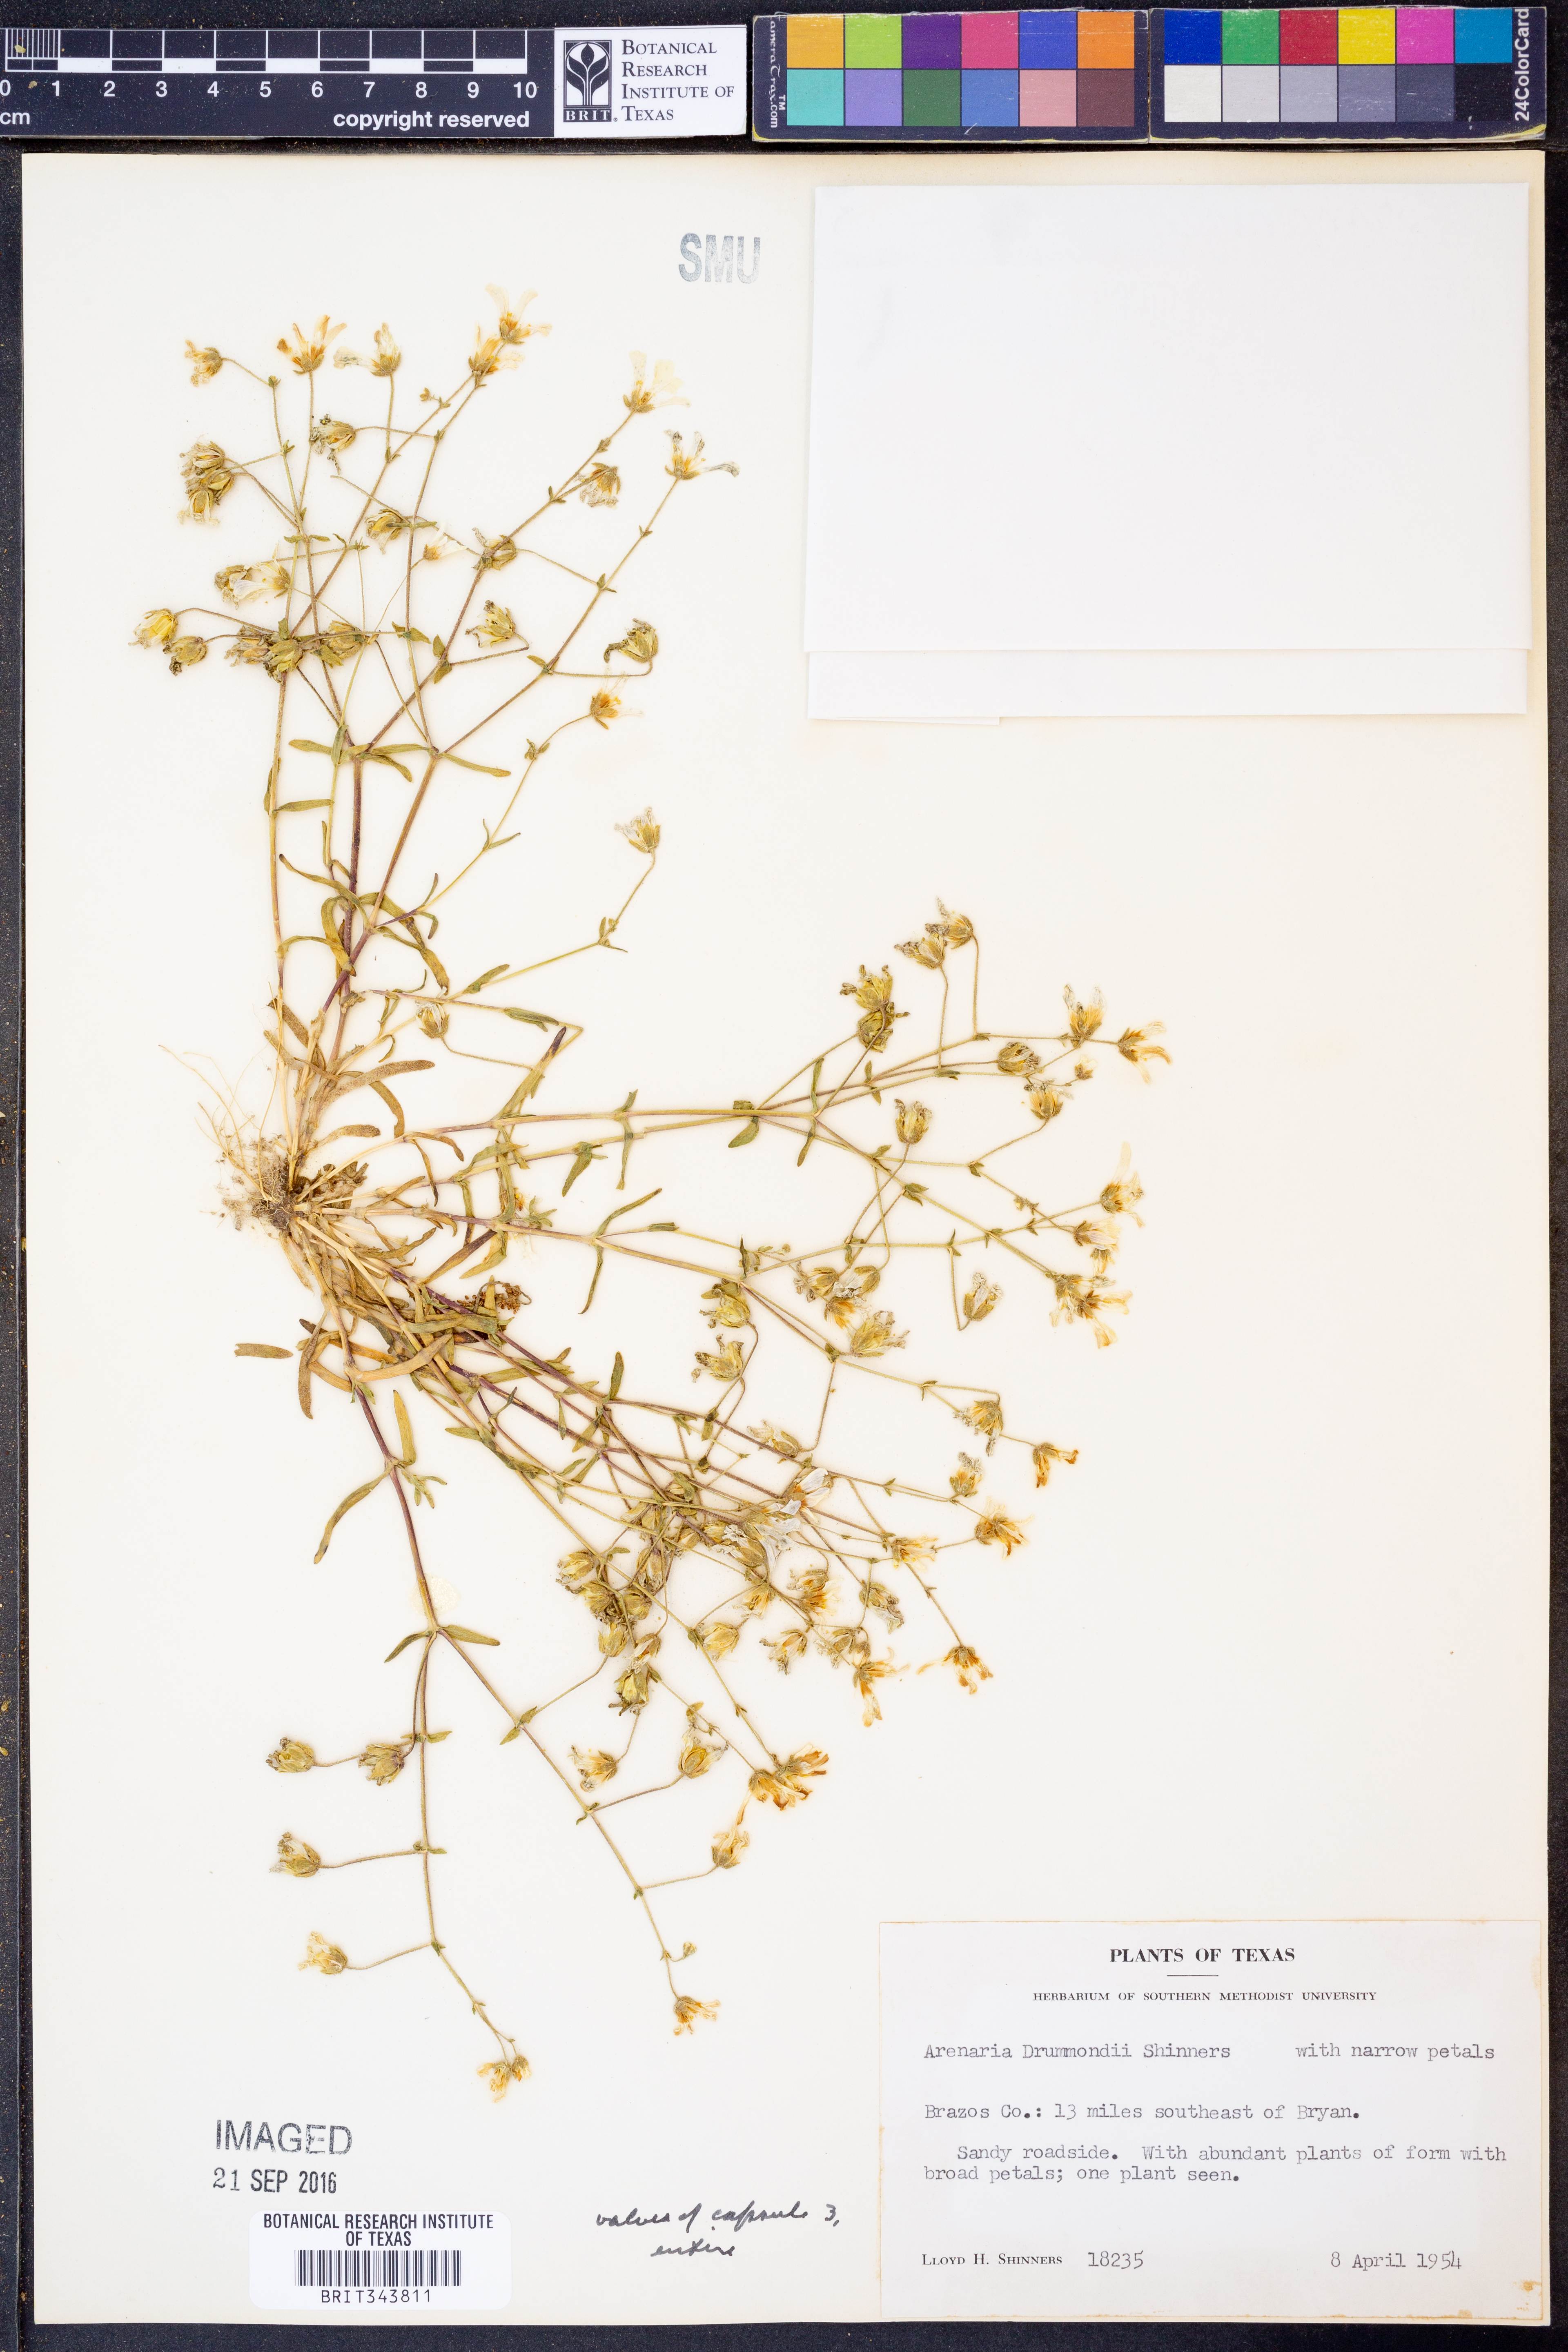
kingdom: Plantae
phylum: Tracheophyta
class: Magnoliopsida
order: Caryophyllales
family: Caryophyllaceae
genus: Geocarpon
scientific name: Geocarpon nuttallii
